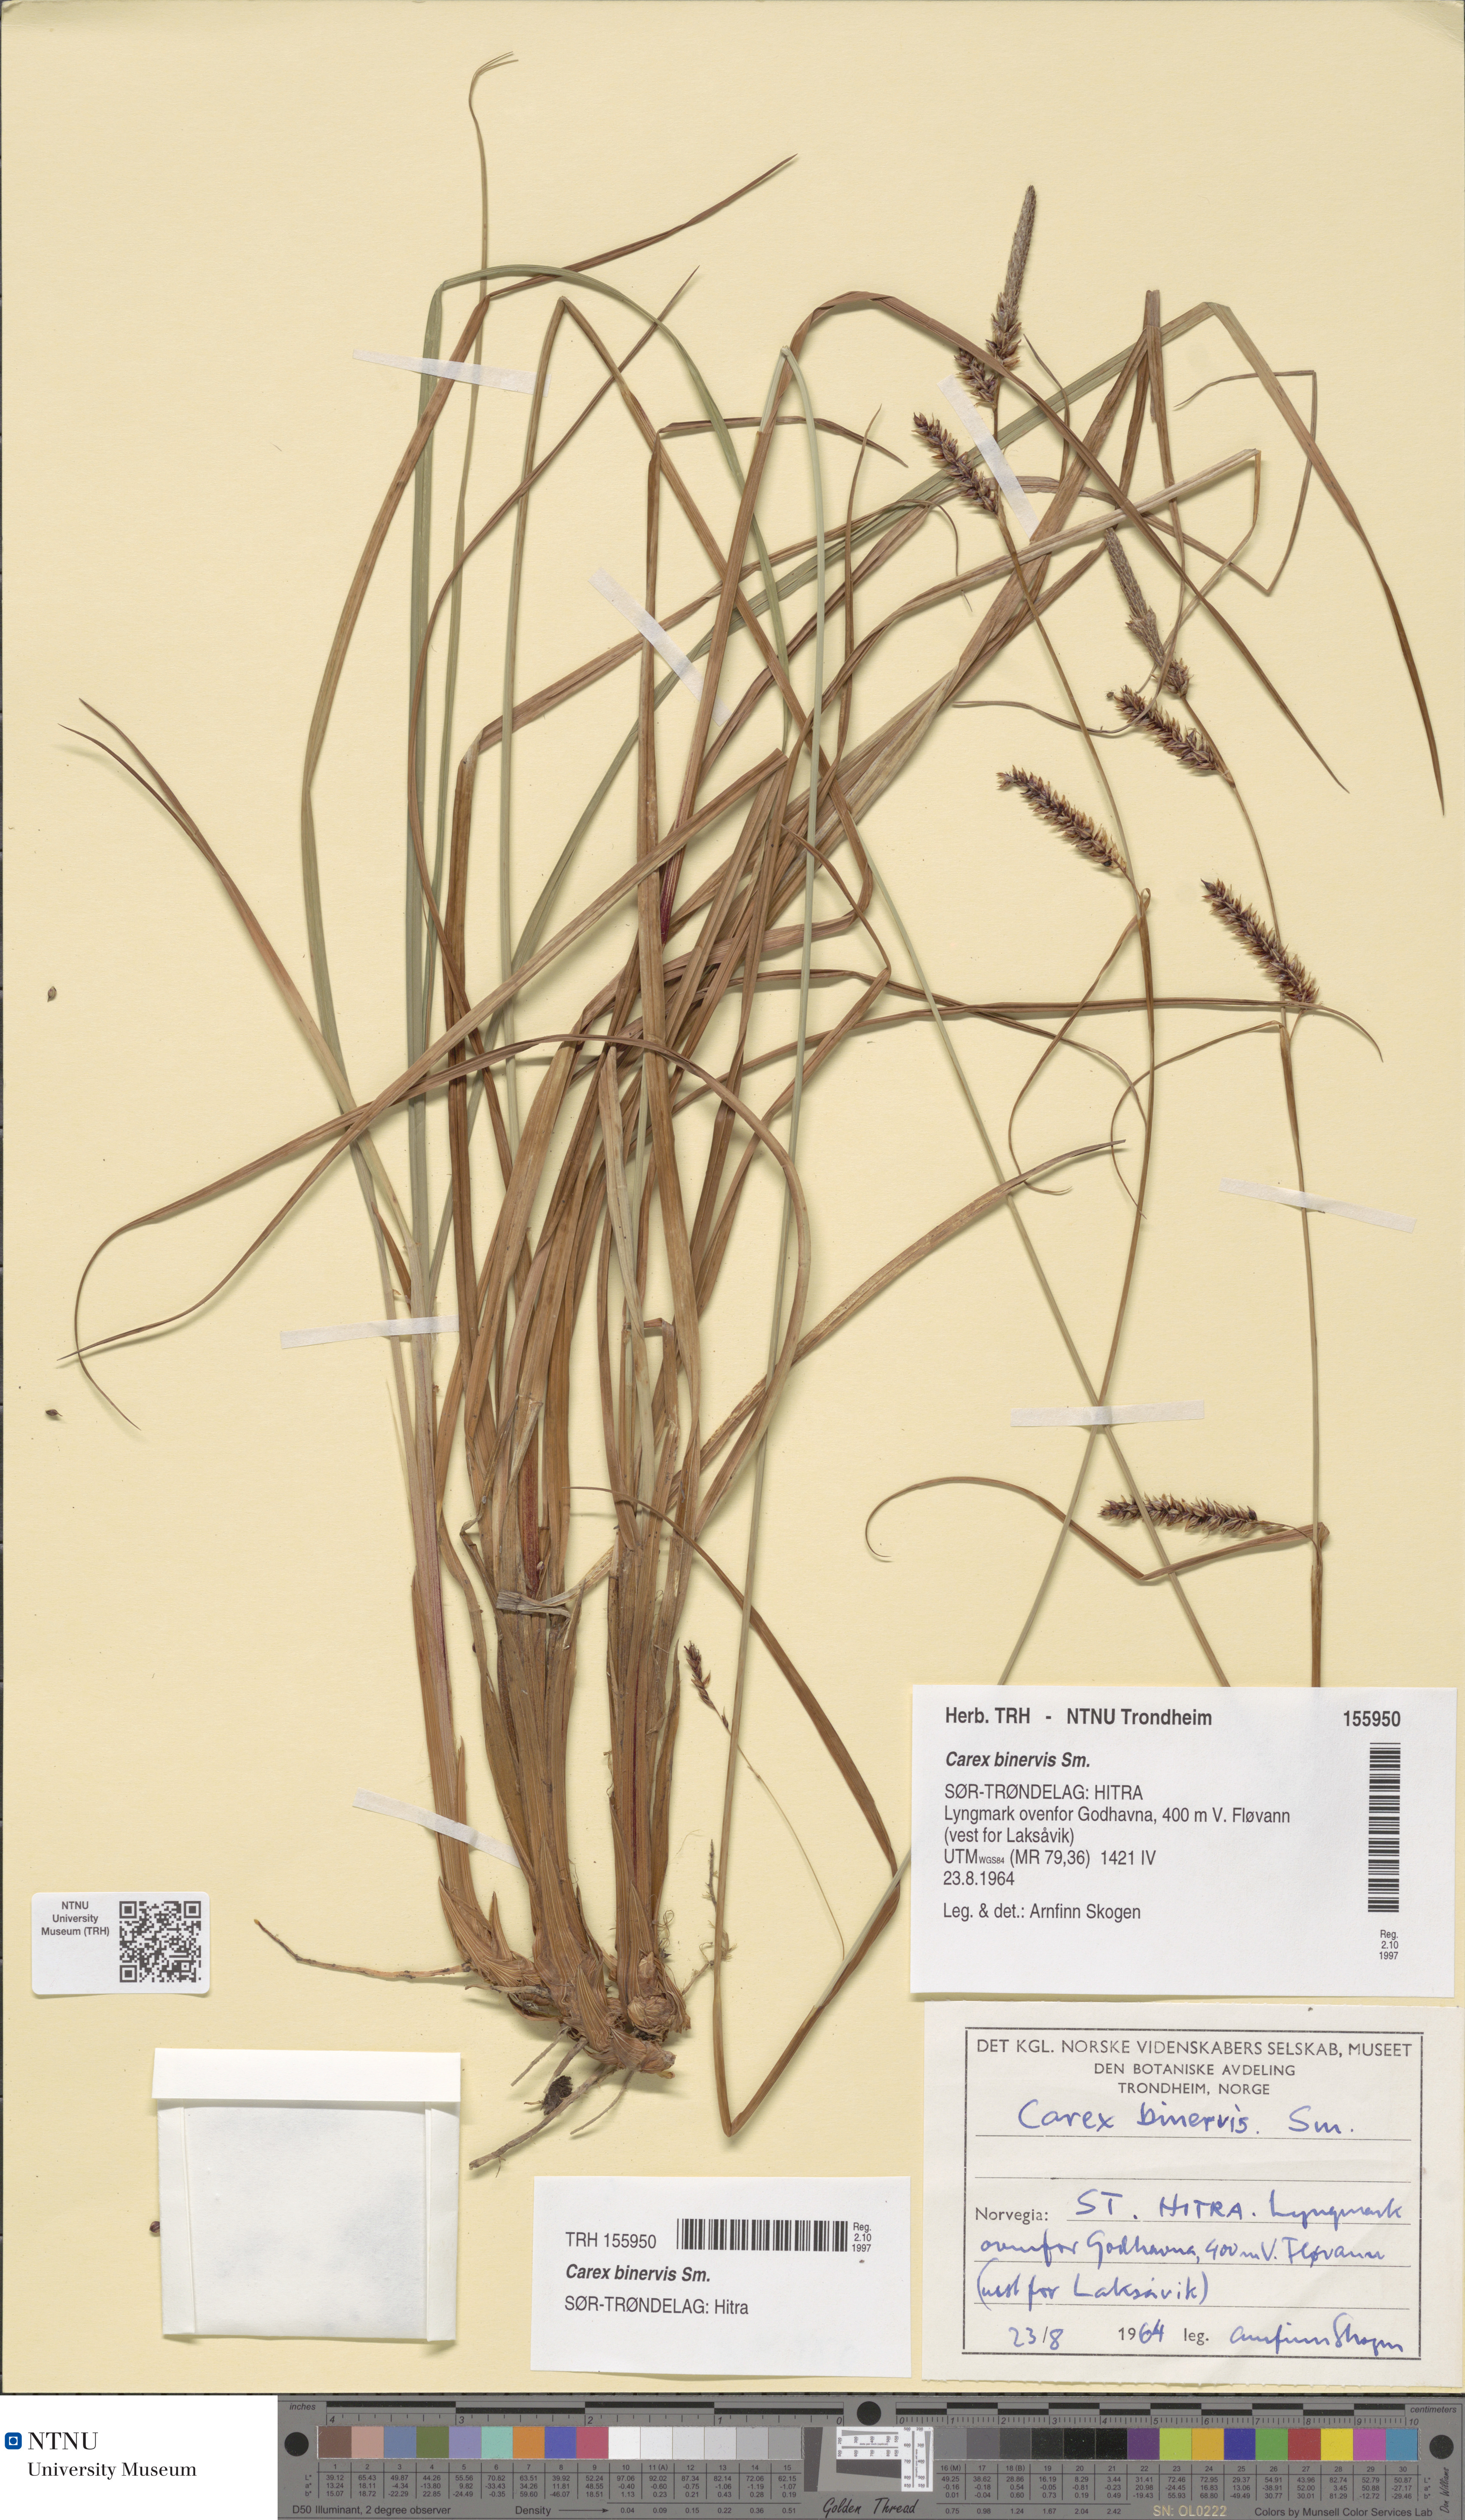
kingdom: Plantae
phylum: Tracheophyta
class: Liliopsida
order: Poales
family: Cyperaceae
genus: Carex
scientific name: Carex binervis
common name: Green-ribbed sedge
